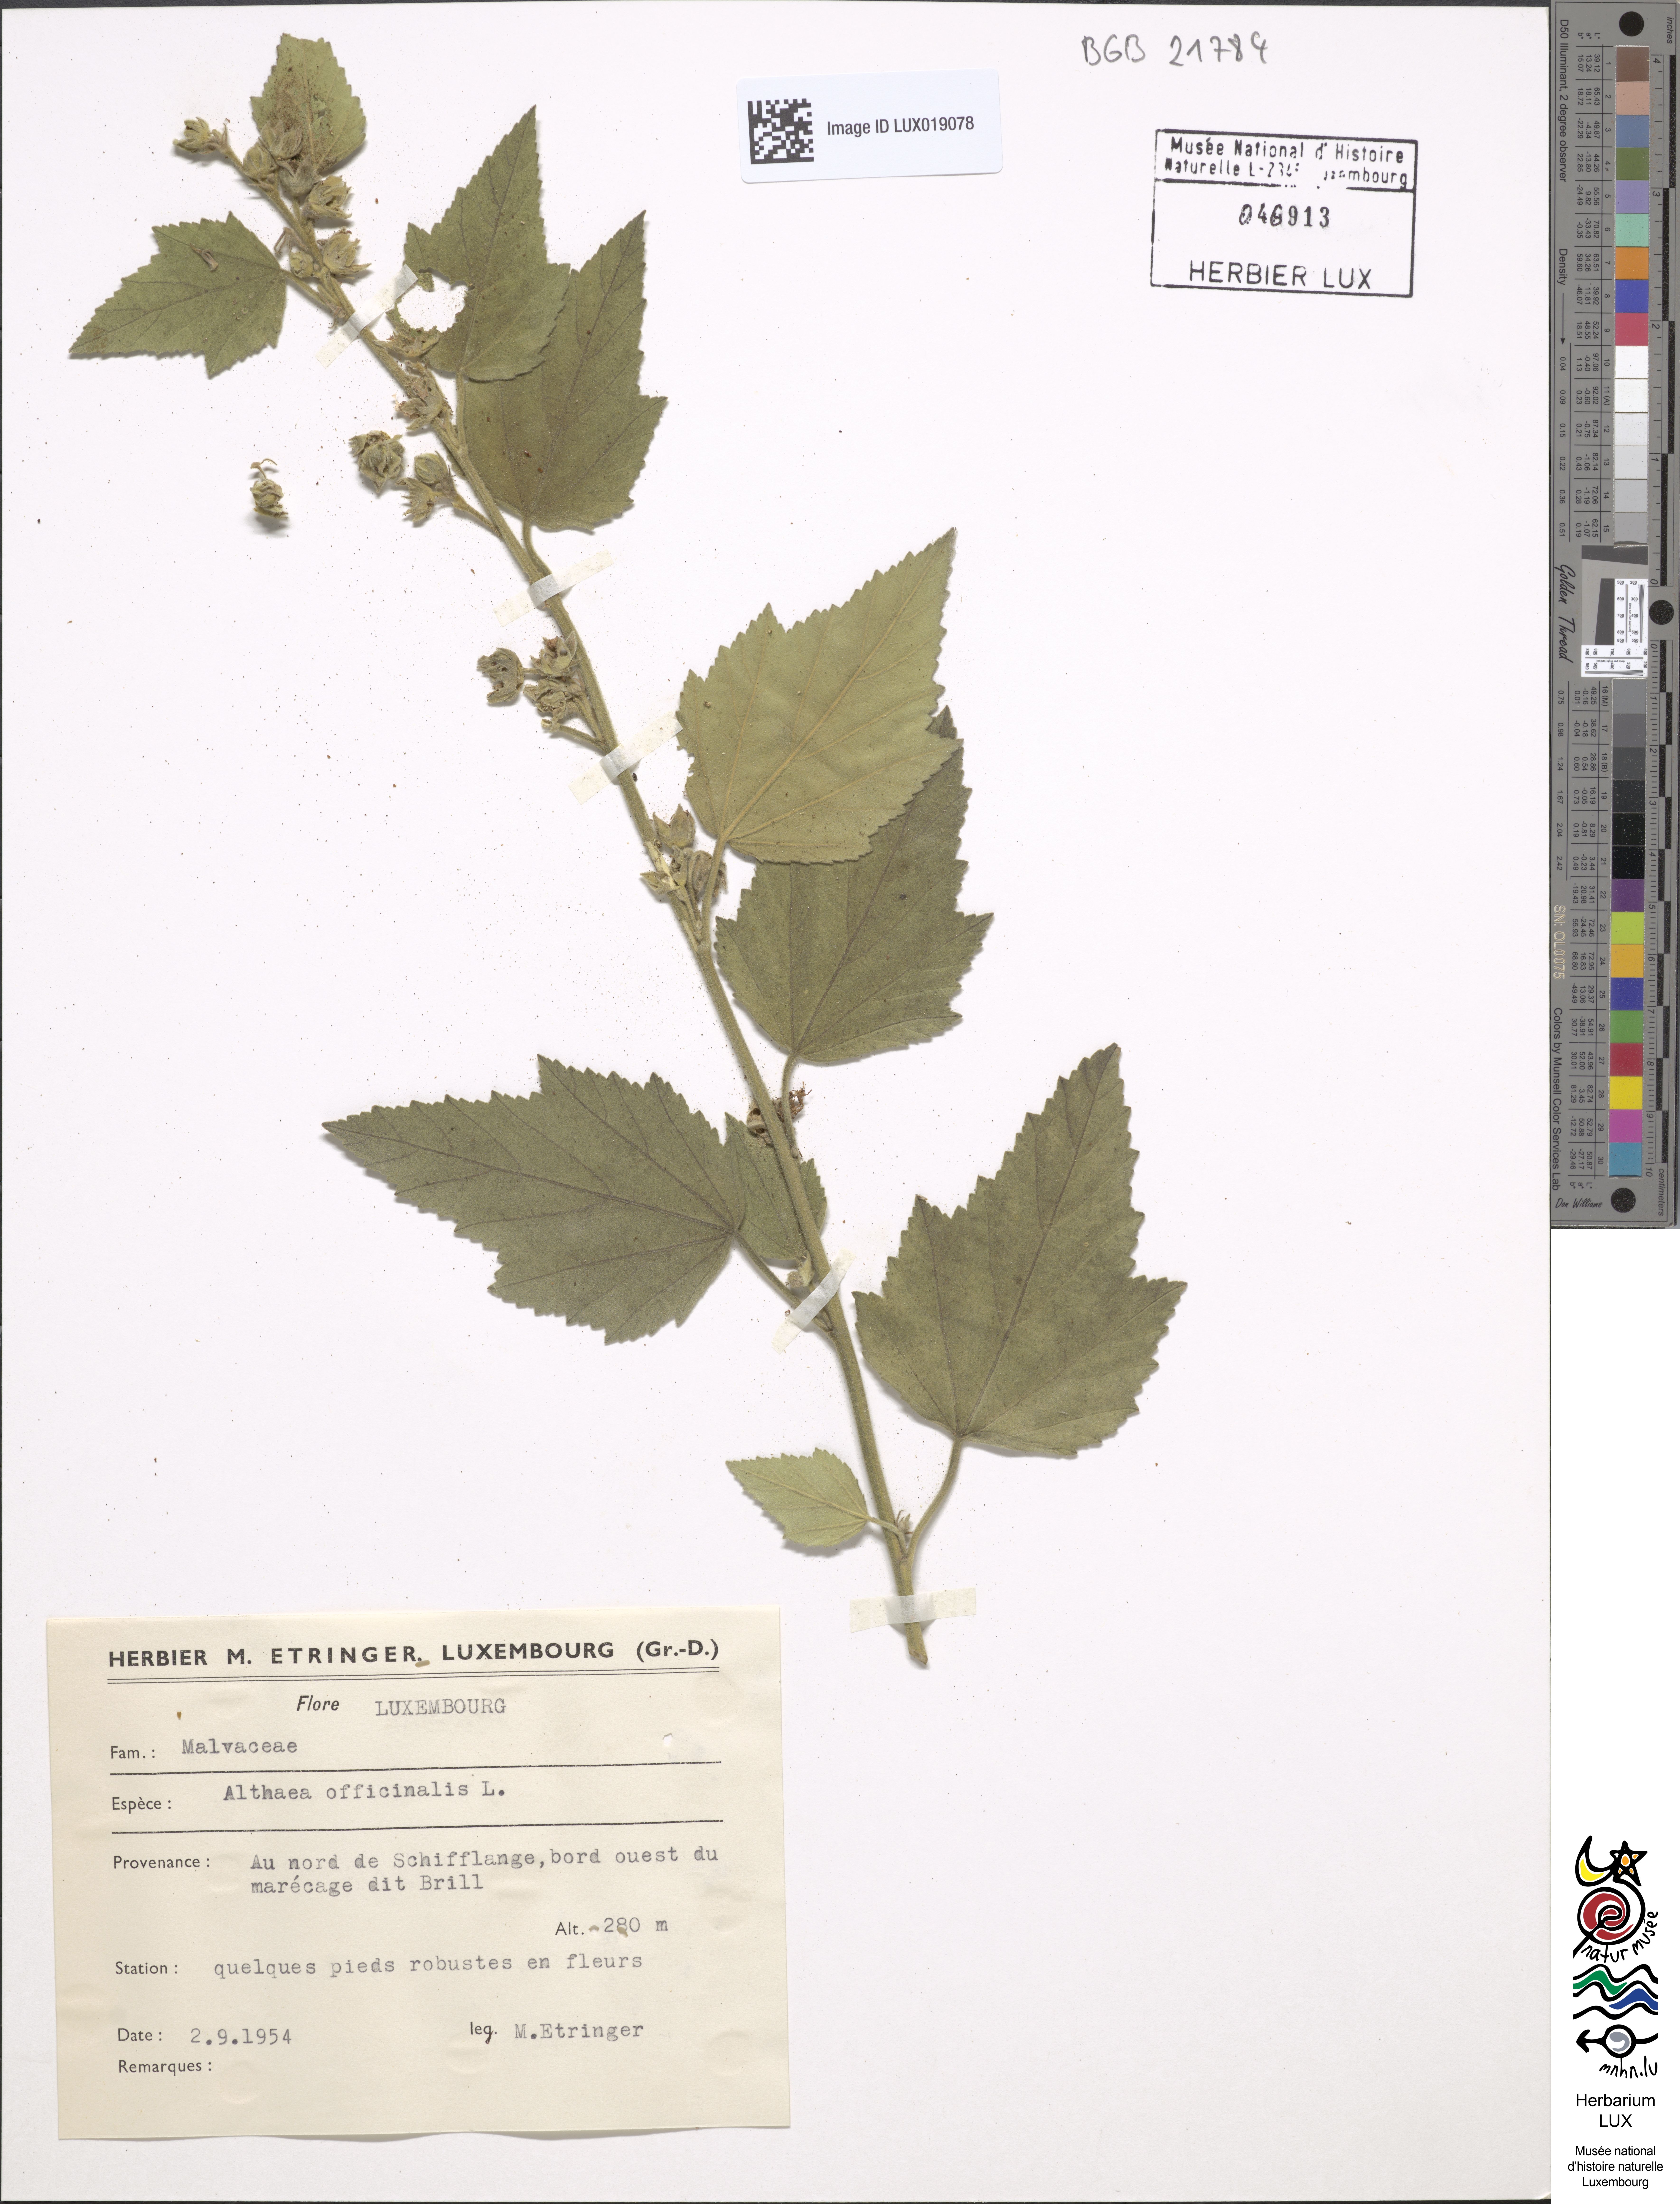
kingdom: Plantae
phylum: Tracheophyta
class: Magnoliopsida
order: Malvales
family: Malvaceae
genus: Althaea
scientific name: Althaea officinalis
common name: Marsh-mallow
